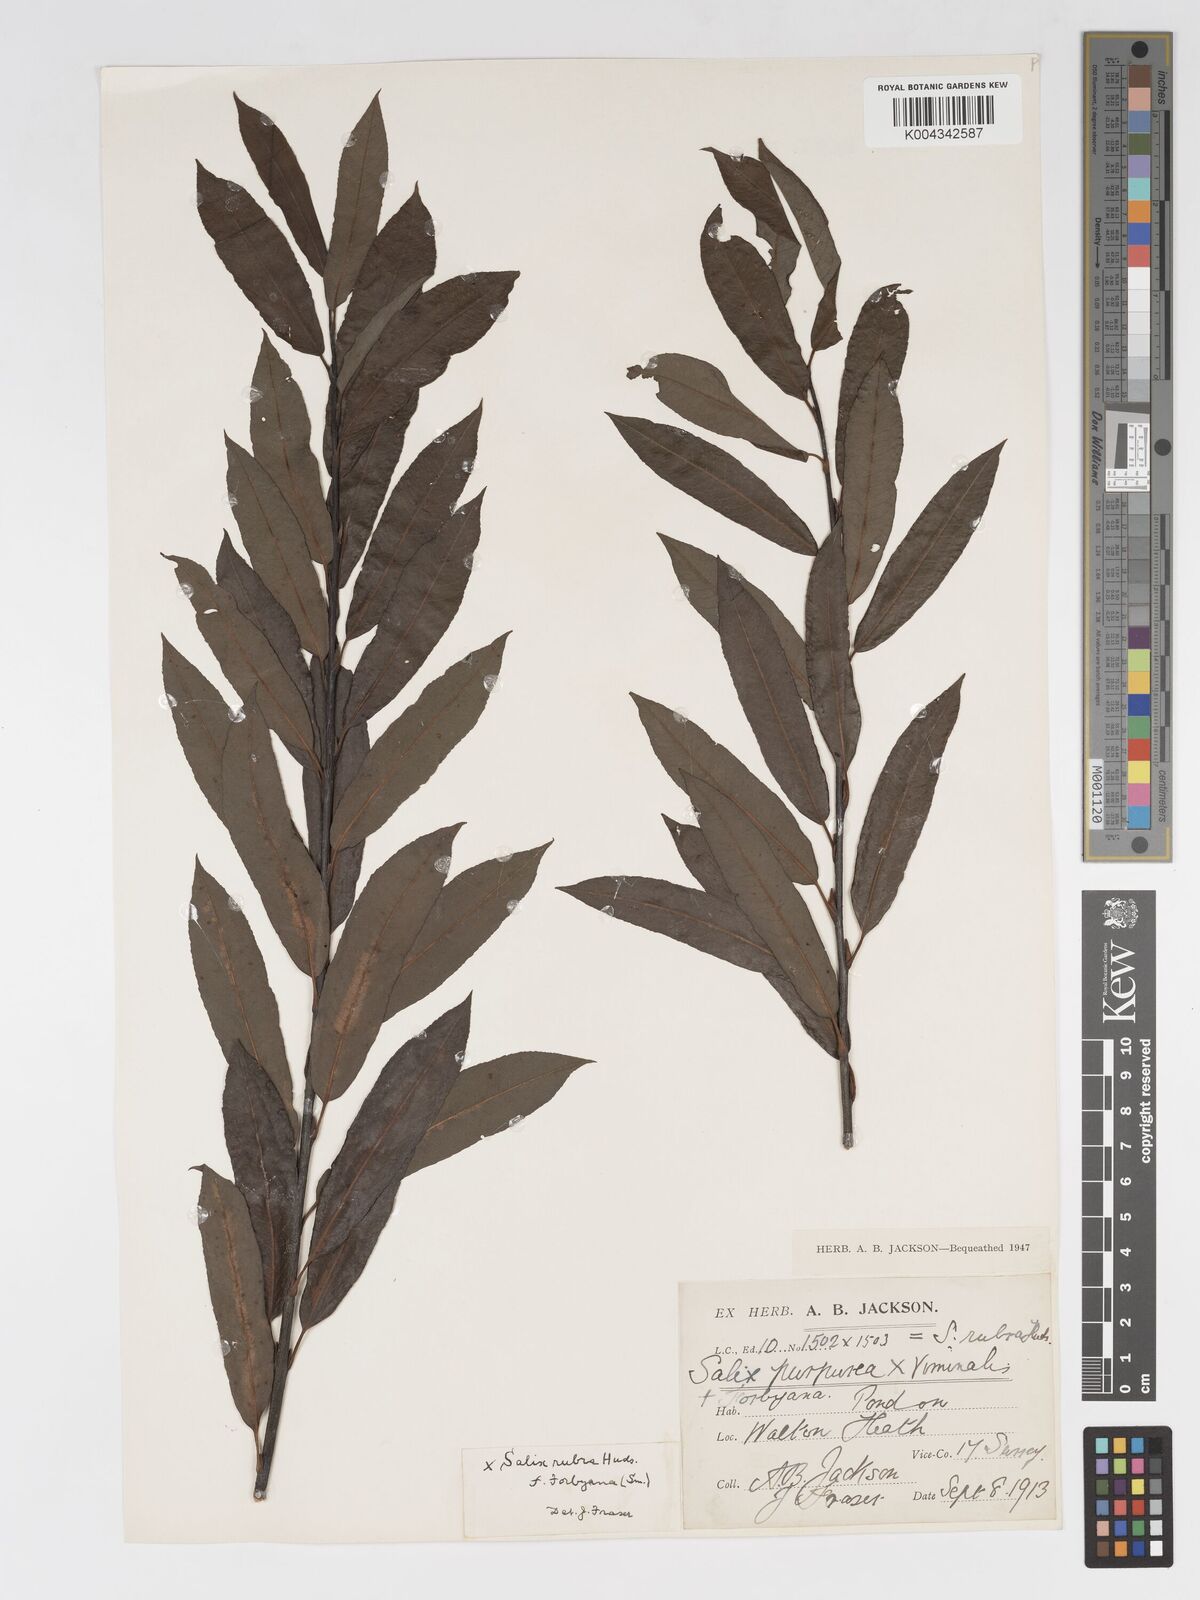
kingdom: Plantae
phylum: Tracheophyta
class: Magnoliopsida
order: Malpighiales
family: Salicaceae
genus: Salix
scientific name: Salix cinerea
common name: Common sallow
